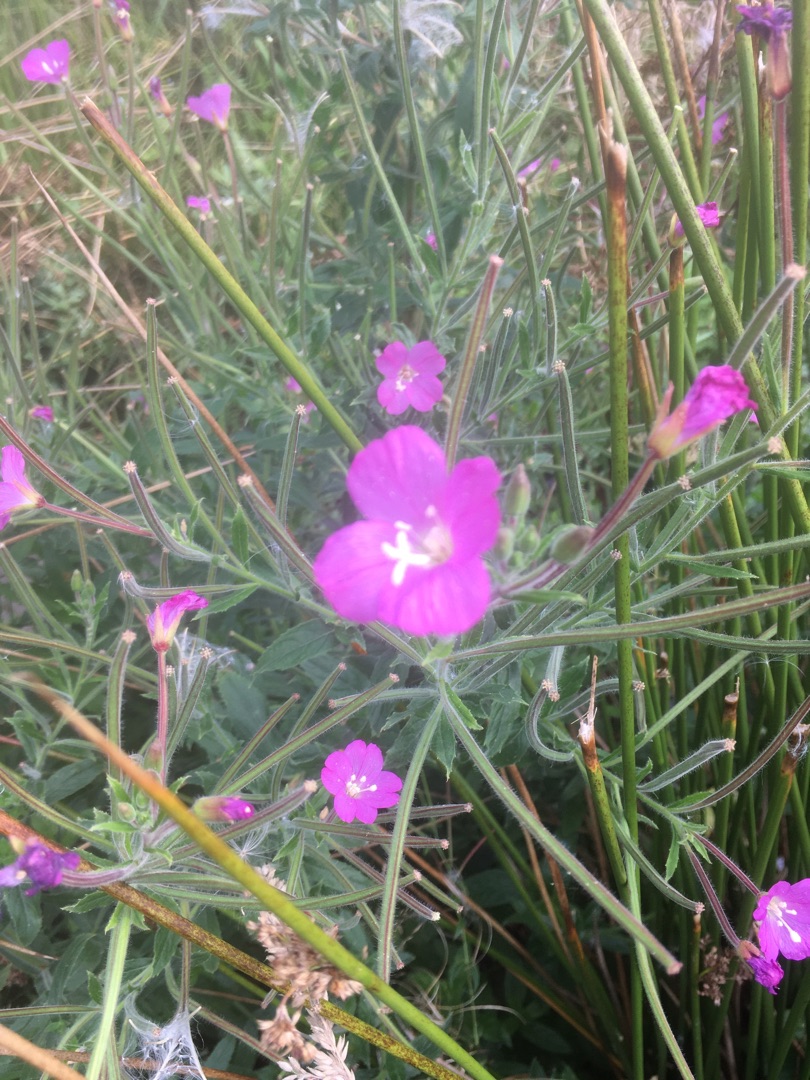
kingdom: Plantae
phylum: Tracheophyta
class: Magnoliopsida
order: Myrtales
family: Onagraceae
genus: Epilobium
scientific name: Epilobium hirsutum
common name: Lådden dueurt
